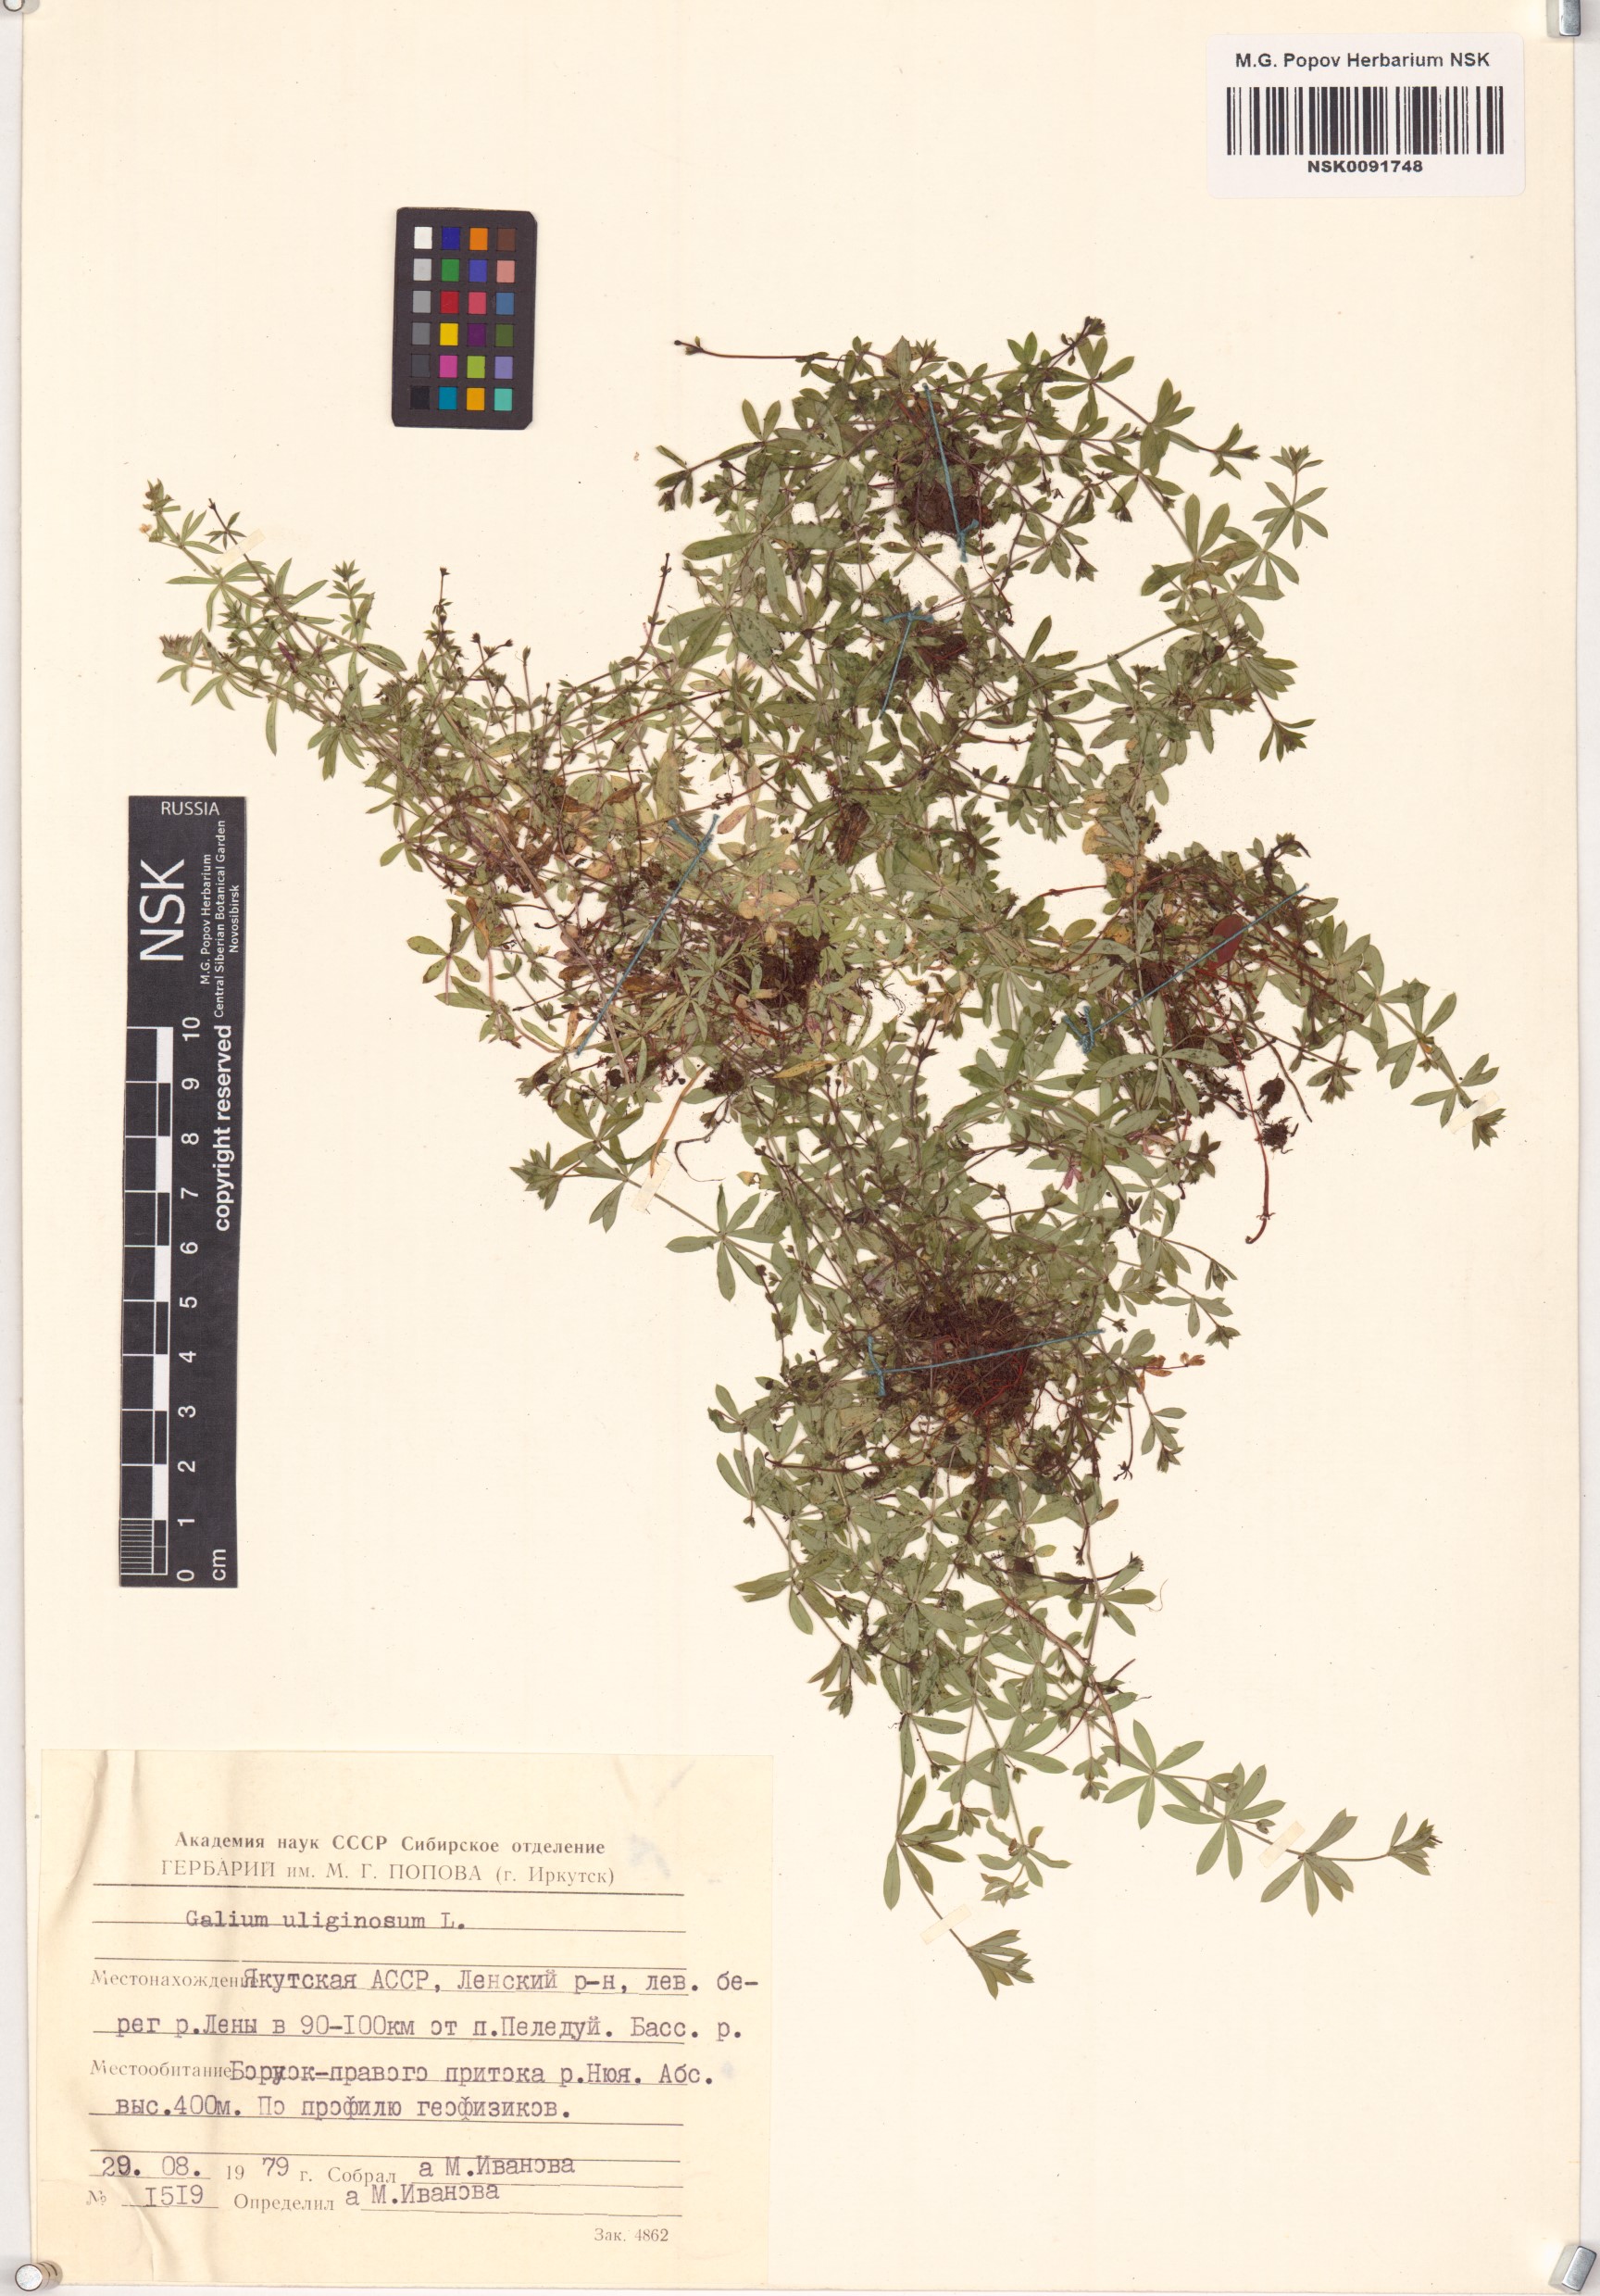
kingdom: Plantae
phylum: Tracheophyta
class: Magnoliopsida
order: Gentianales
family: Rubiaceae
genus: Galium
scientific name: Galium uliginosum
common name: Fen bedstraw
